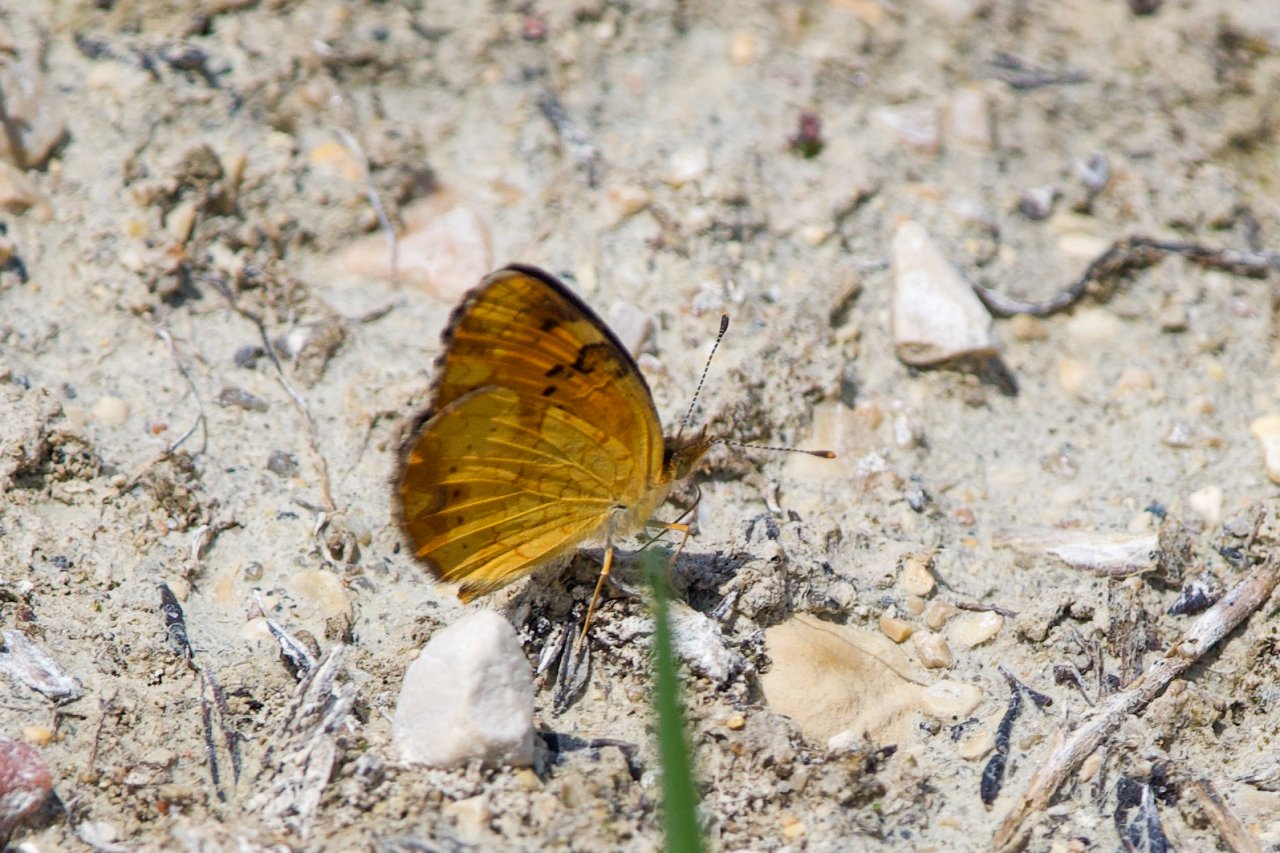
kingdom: Animalia
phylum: Arthropoda
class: Insecta
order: Lepidoptera
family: Nymphalidae
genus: Phyciodes
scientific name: Phyciodes tharos
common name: Northern Crescent
